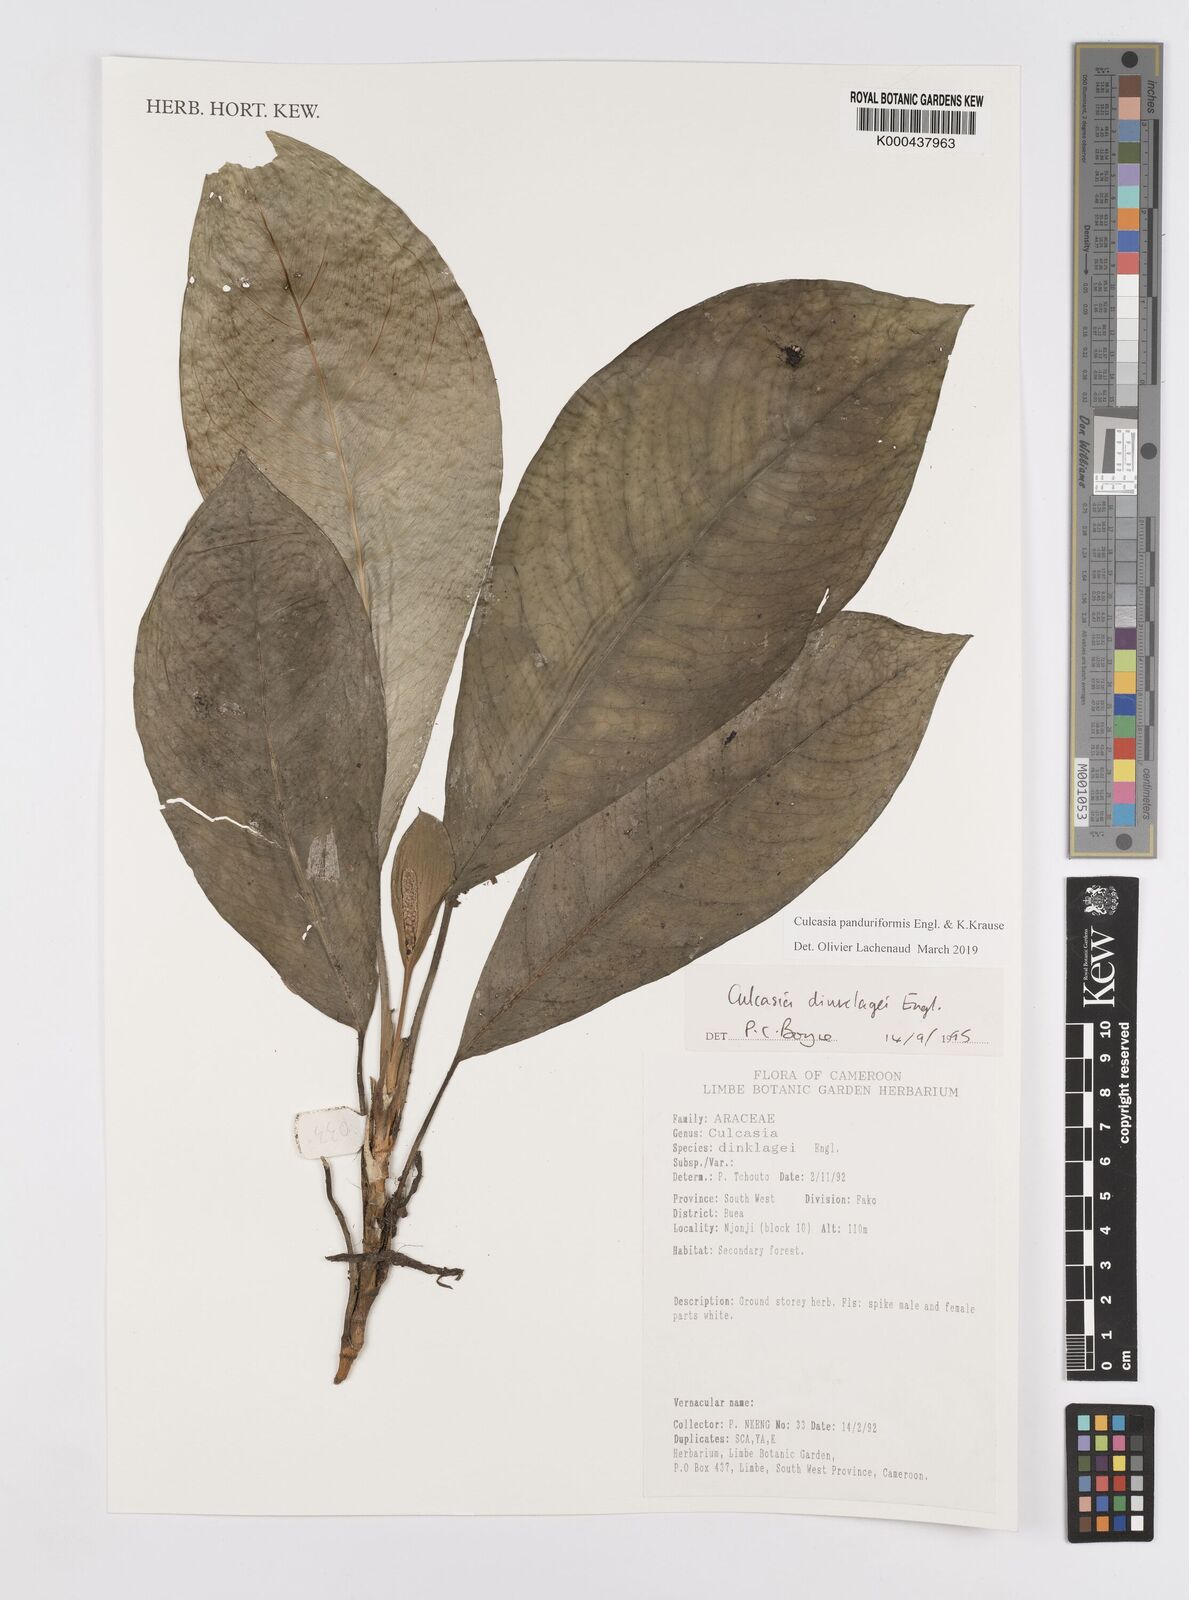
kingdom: Plantae
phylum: Tracheophyta
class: Liliopsida
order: Alismatales
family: Araceae
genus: Culcasia
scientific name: Culcasia panduriformis
